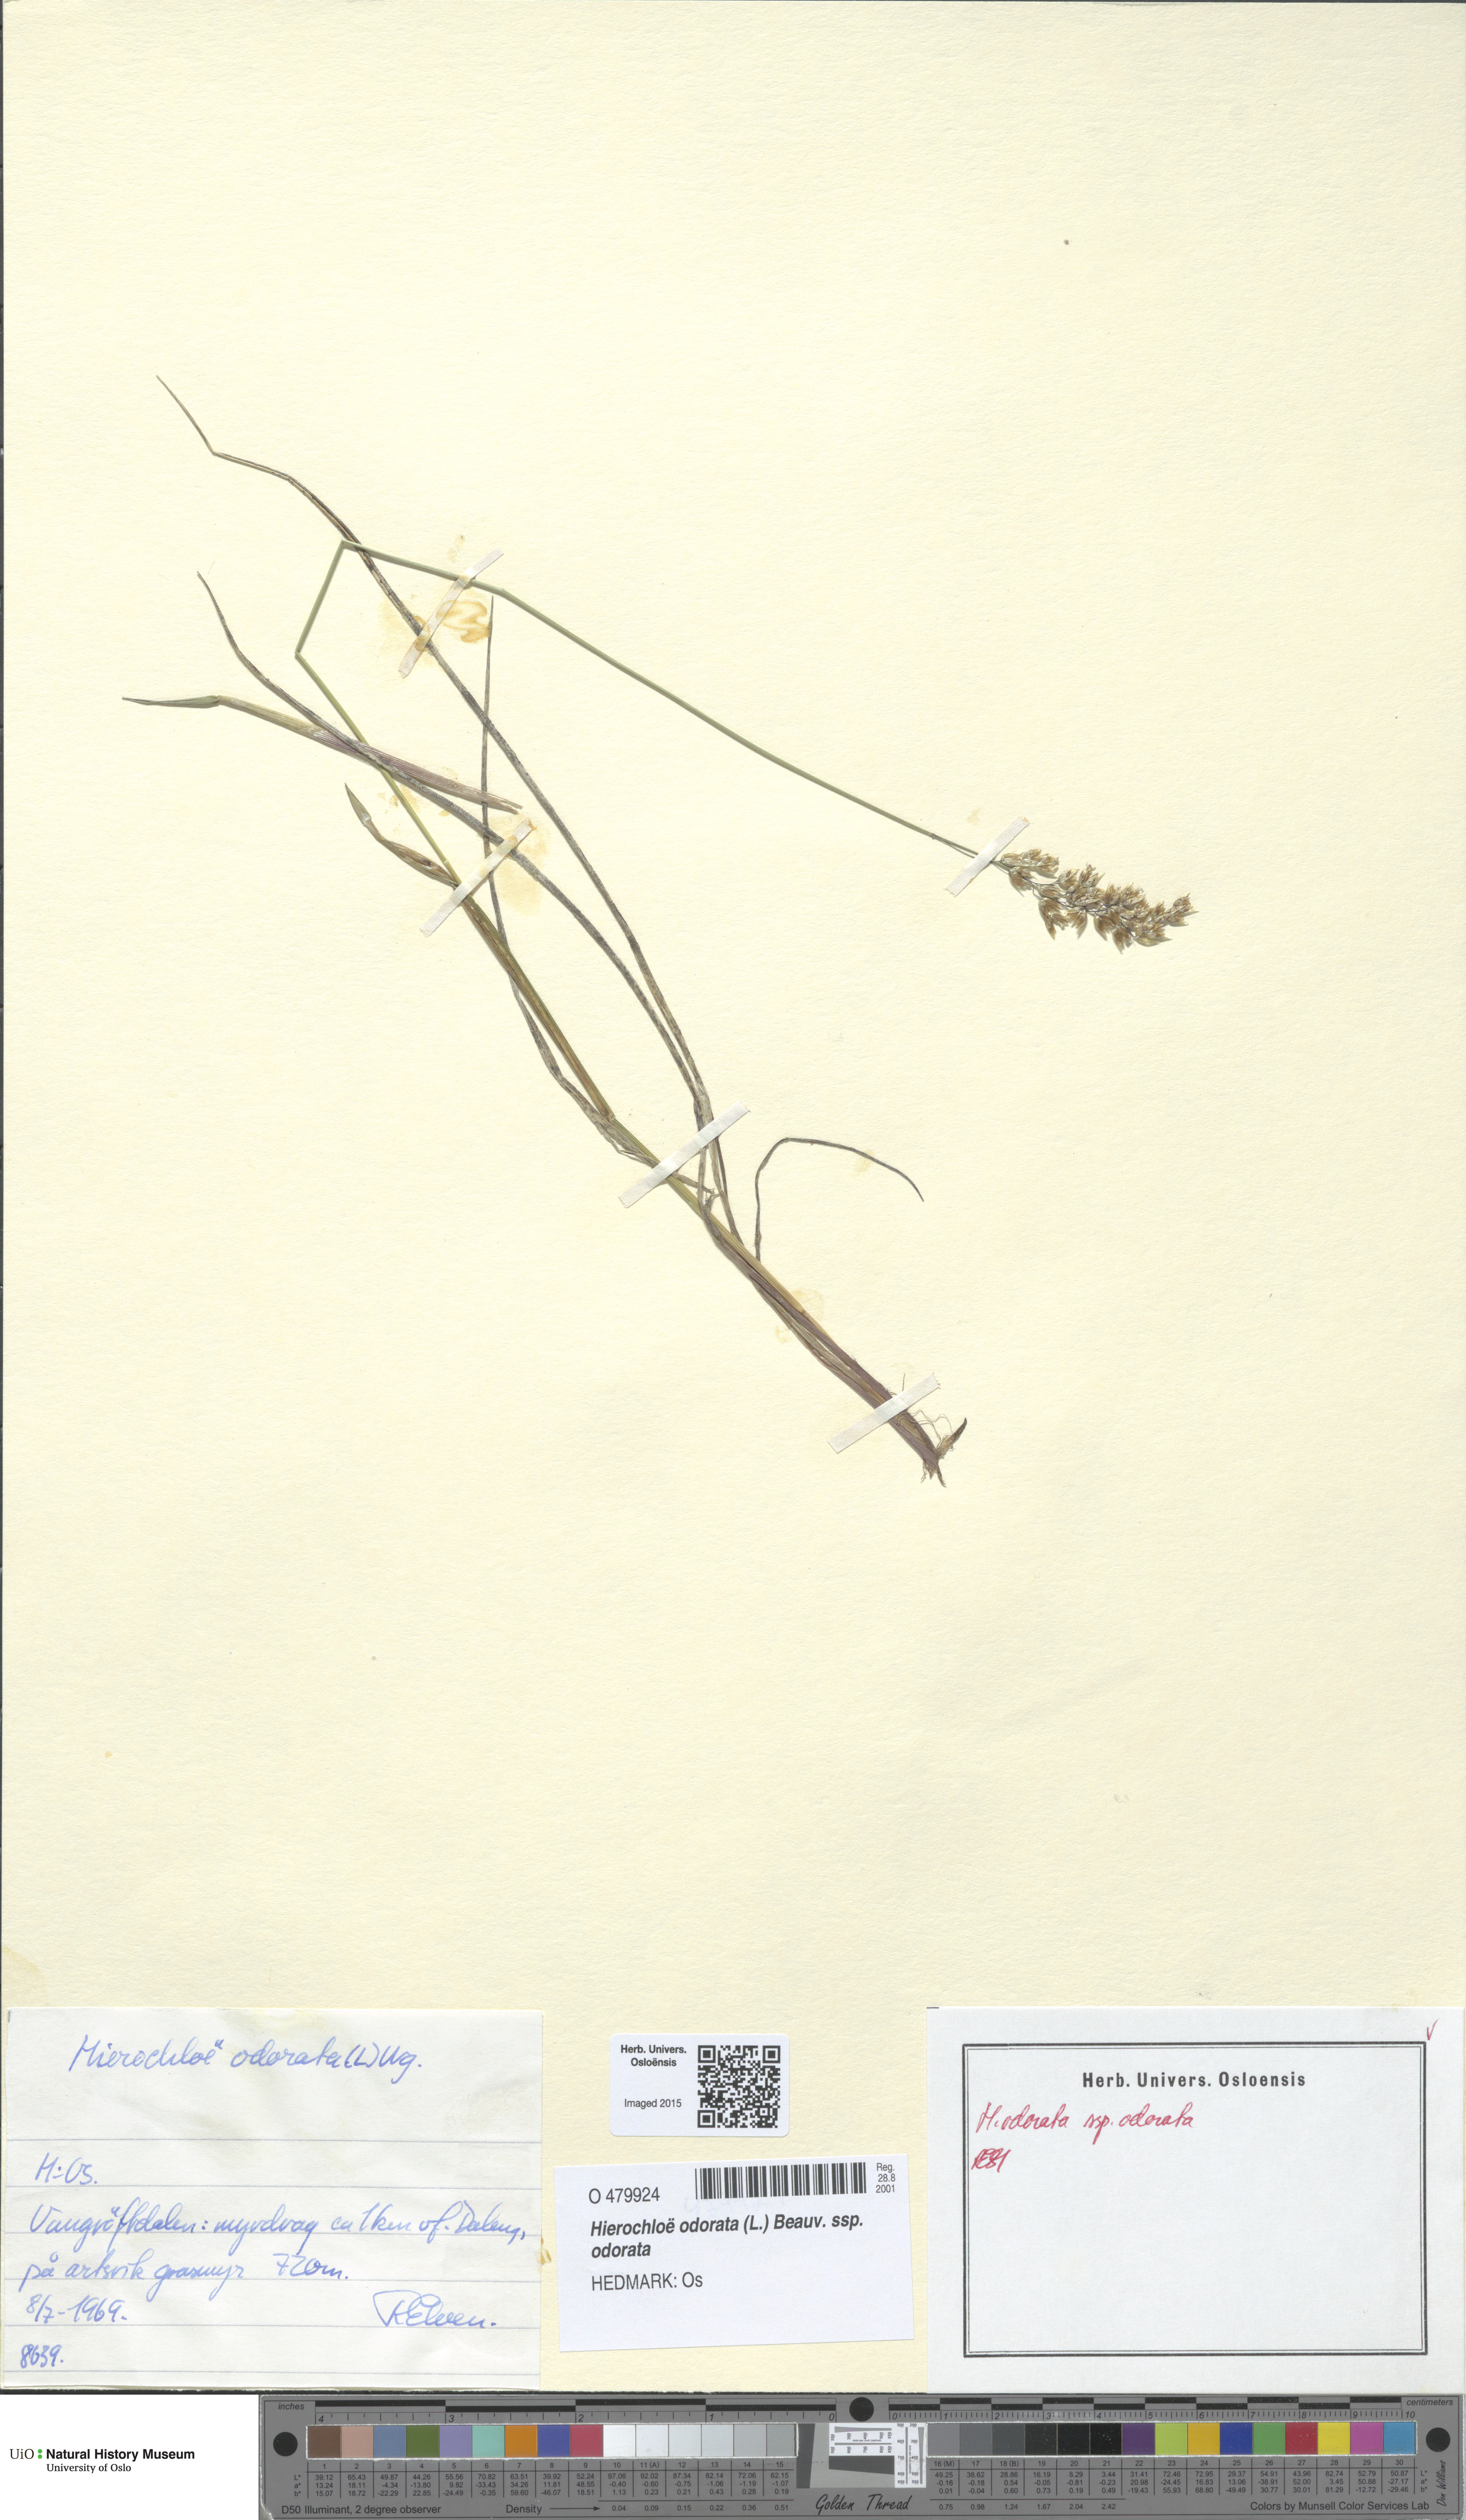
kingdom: Plantae
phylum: Tracheophyta
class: Liliopsida
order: Poales
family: Poaceae
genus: Anthoxanthum
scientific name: Anthoxanthum nitens
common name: Holy grass
